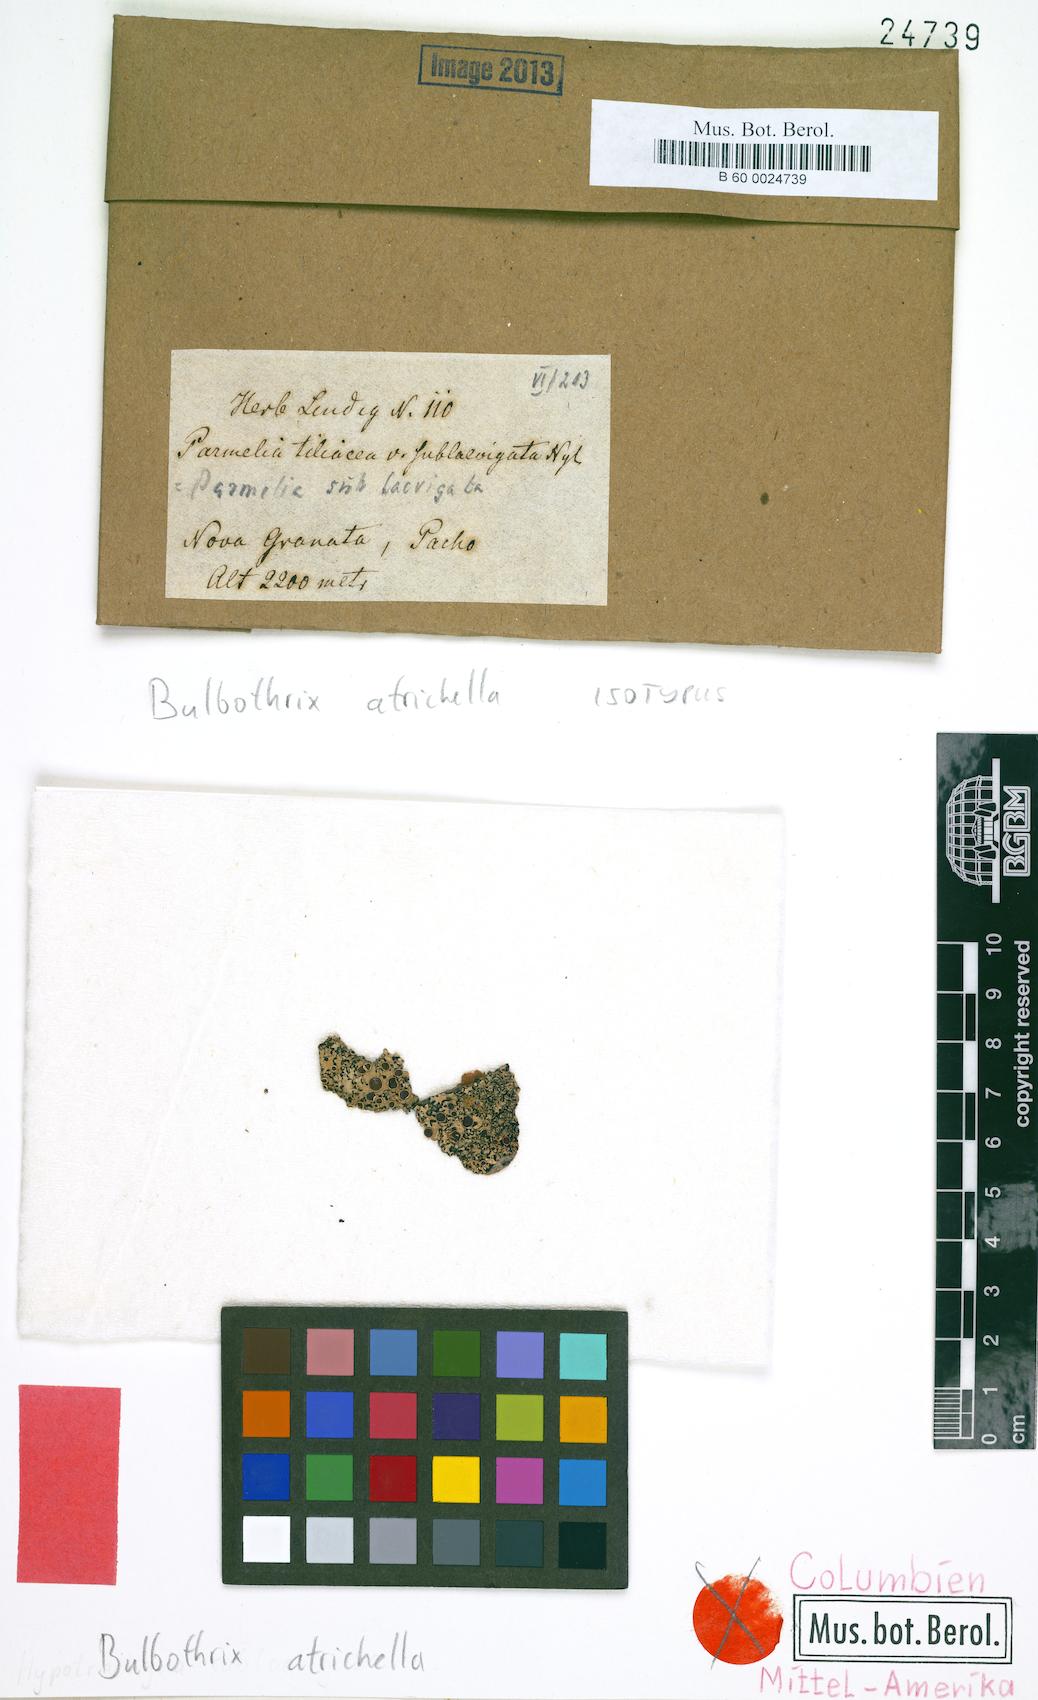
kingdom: Fungi
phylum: Ascomycota
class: Lecanoromycetes
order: Lecanorales
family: Parmeliaceae
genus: Bulbothrix
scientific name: Bulbothrix atrichella
